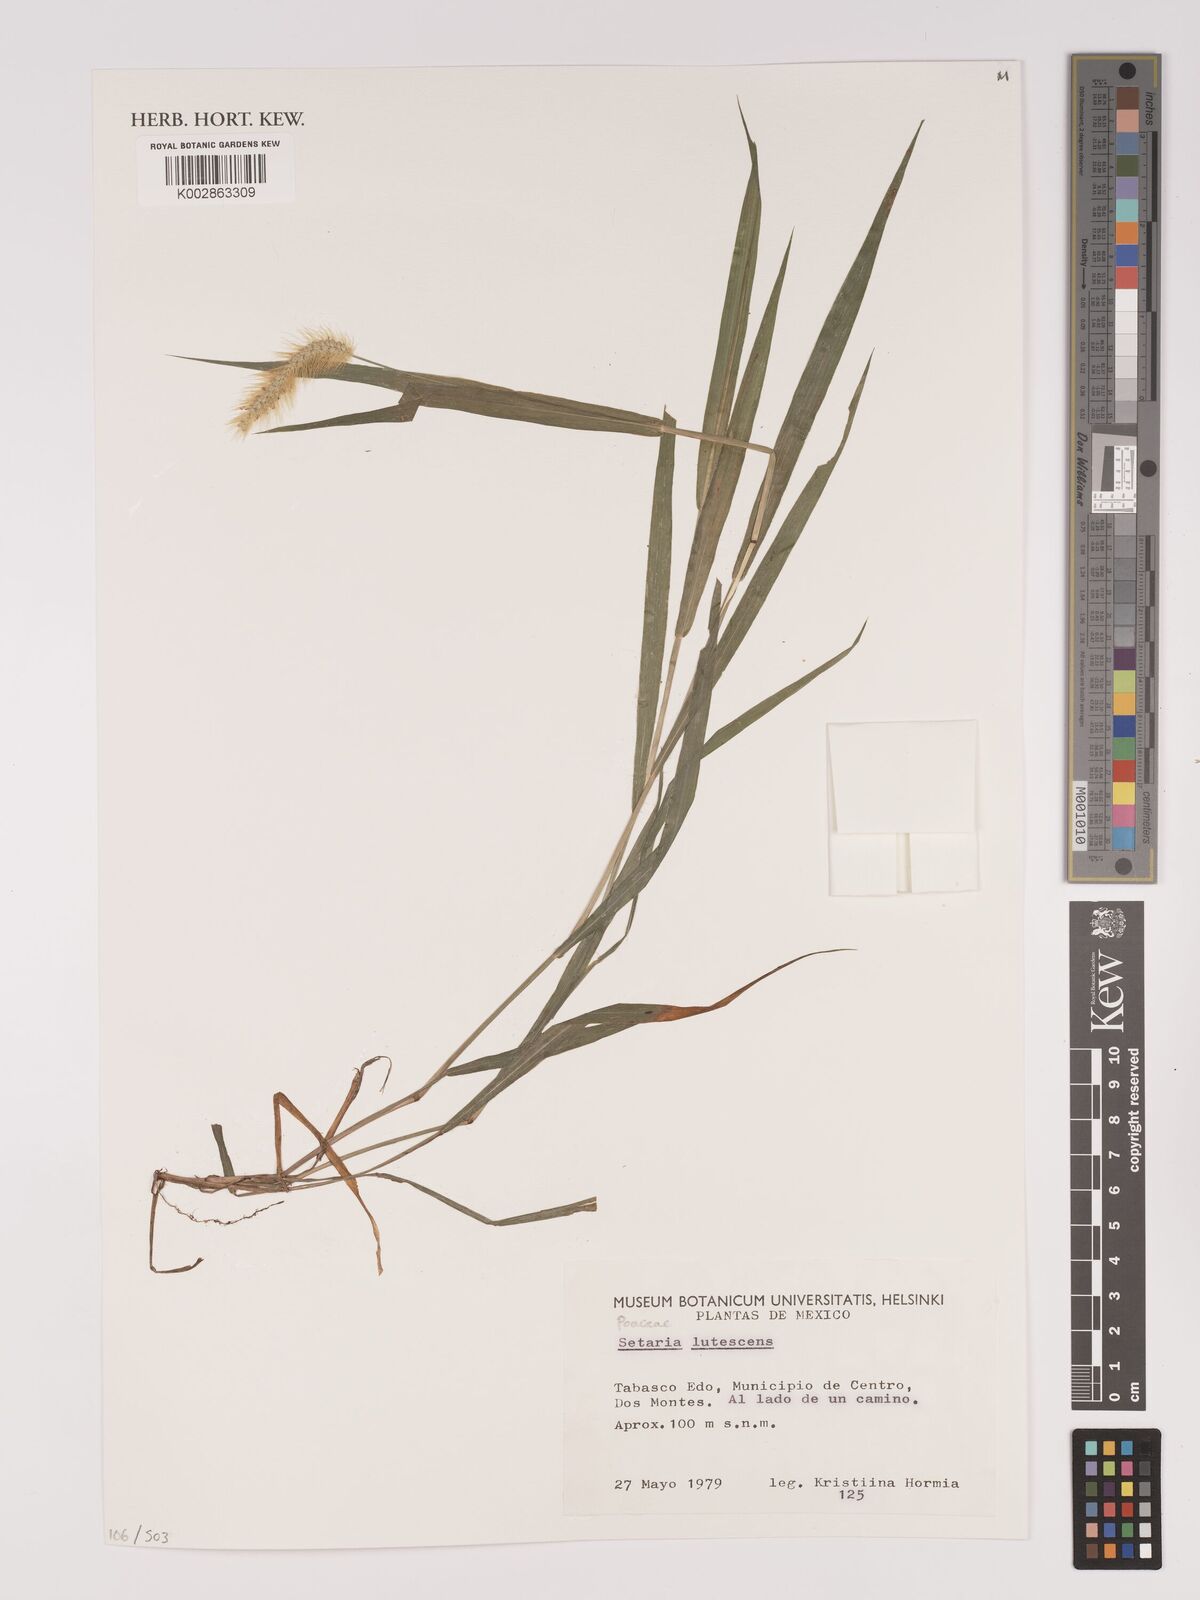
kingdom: Plantae
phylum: Tracheophyta
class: Liliopsida
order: Poales
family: Poaceae
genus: Setaria
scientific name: Setaria pumila
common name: Yellow bristle-grass
